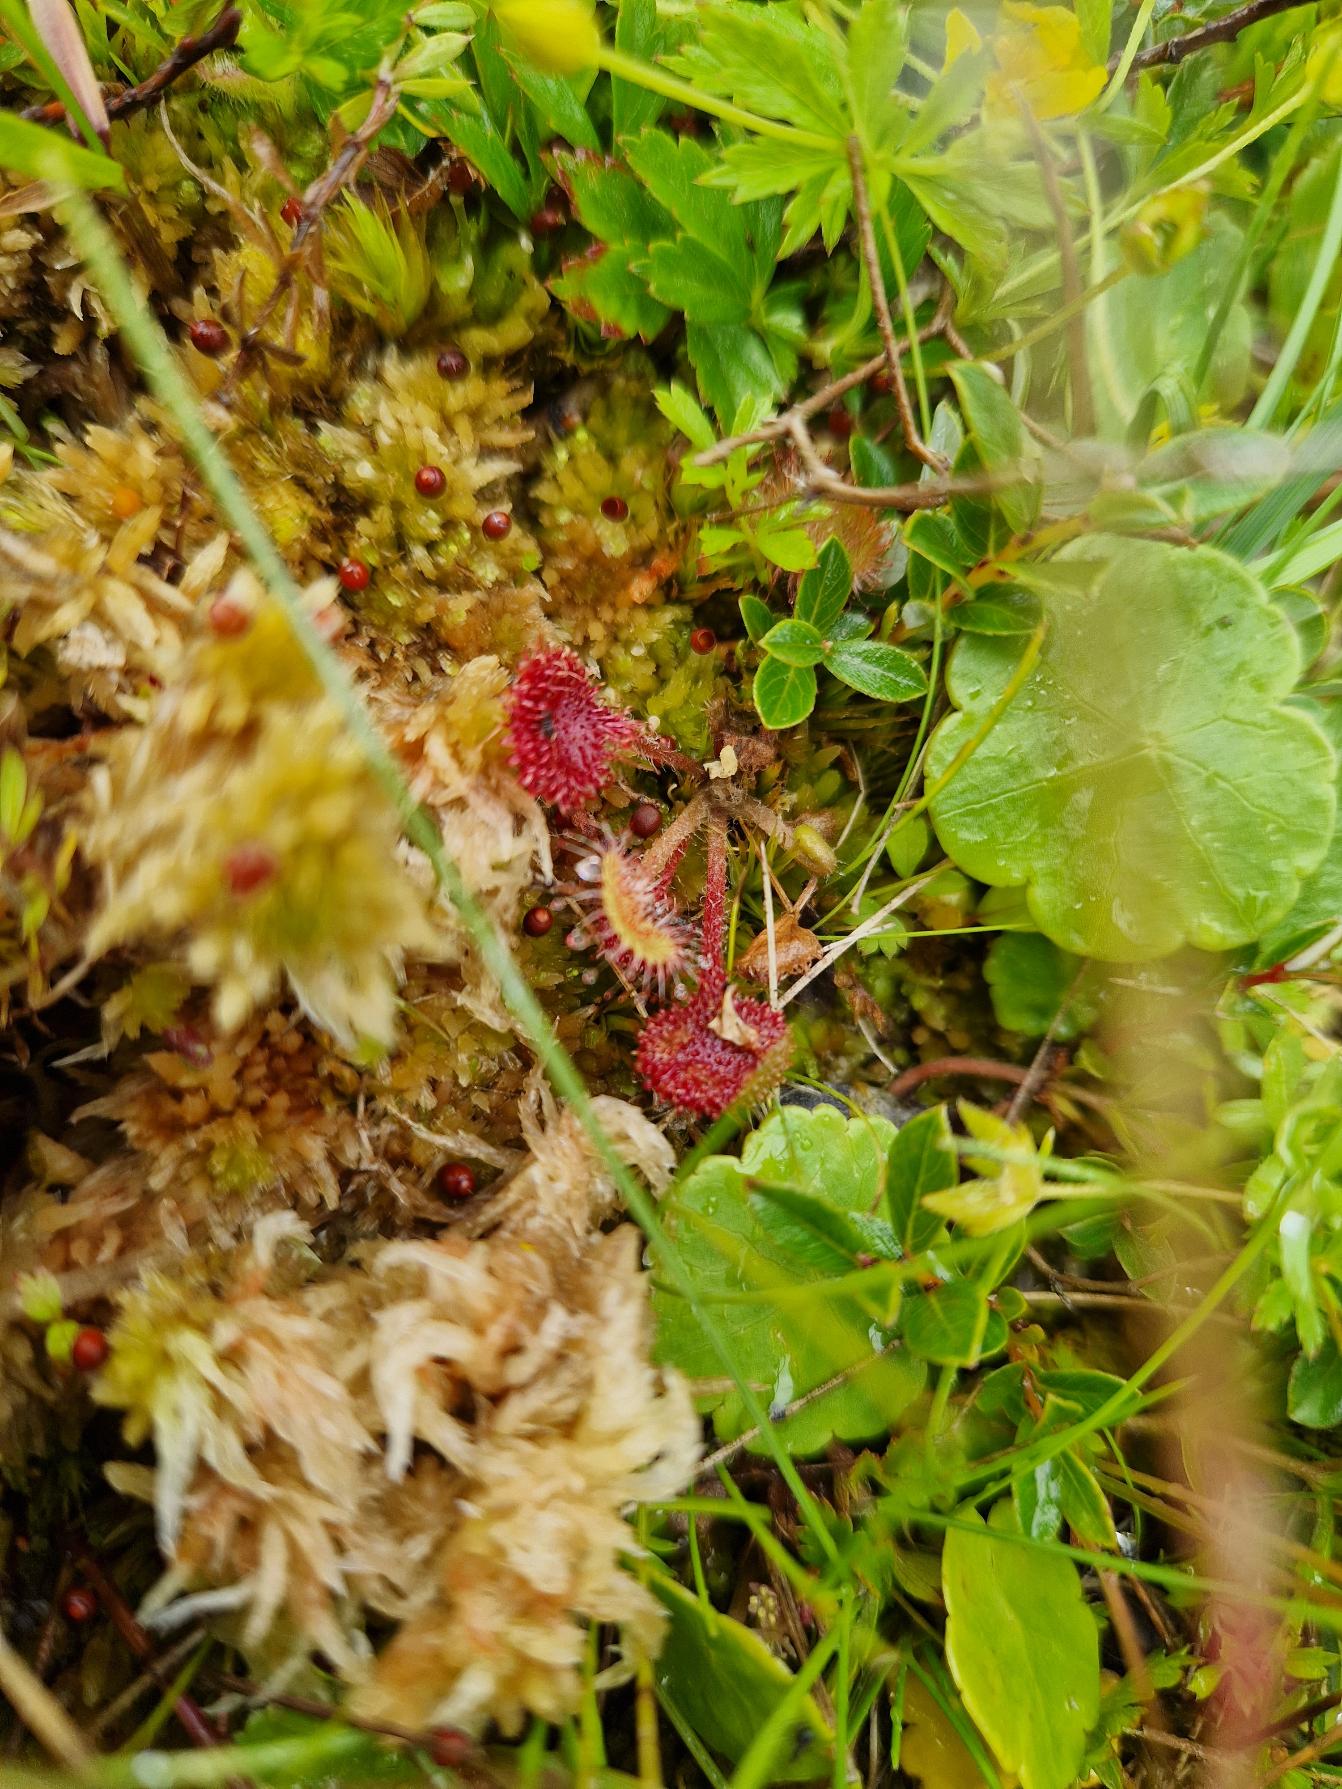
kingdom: Plantae
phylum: Tracheophyta
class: Magnoliopsida
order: Caryophyllales
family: Droseraceae
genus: Drosera
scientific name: Drosera rotundifolia
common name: Rundbladet soldug
